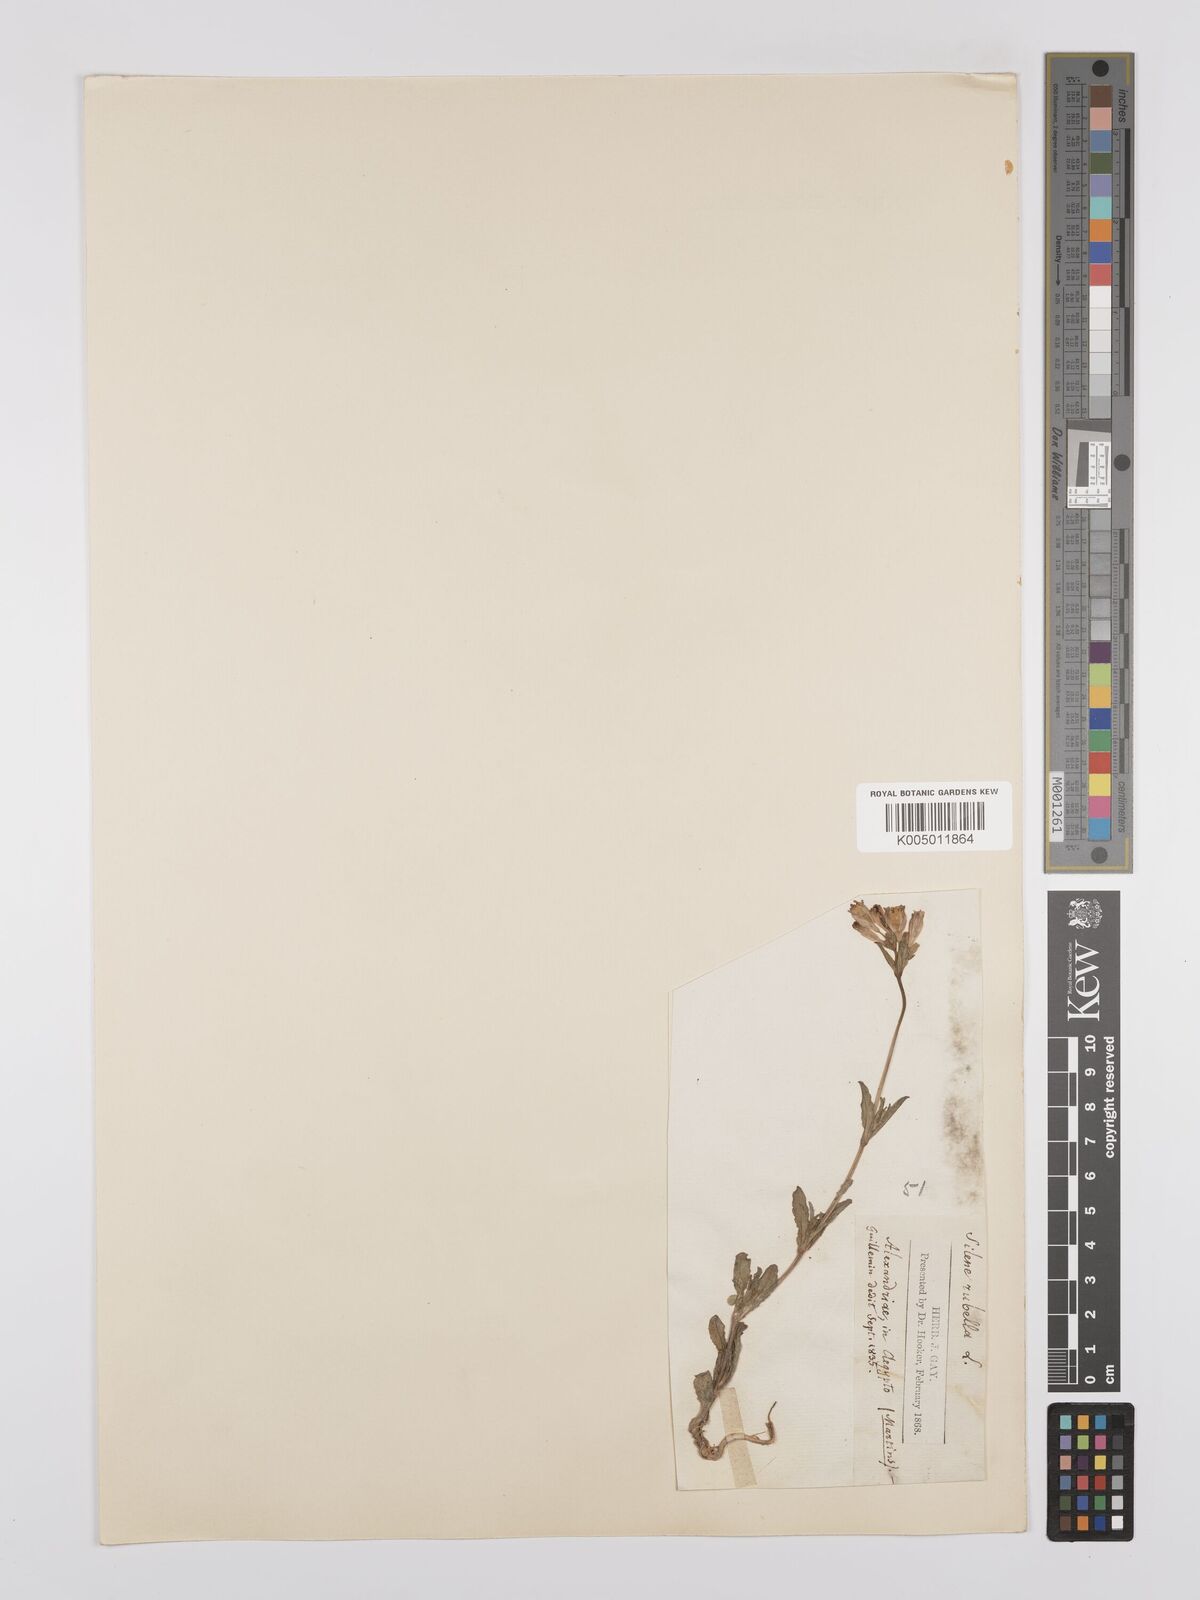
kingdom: Plantae
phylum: Tracheophyta
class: Magnoliopsida
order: Caryophyllales
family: Caryophyllaceae
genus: Silene
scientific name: Silene rubella
